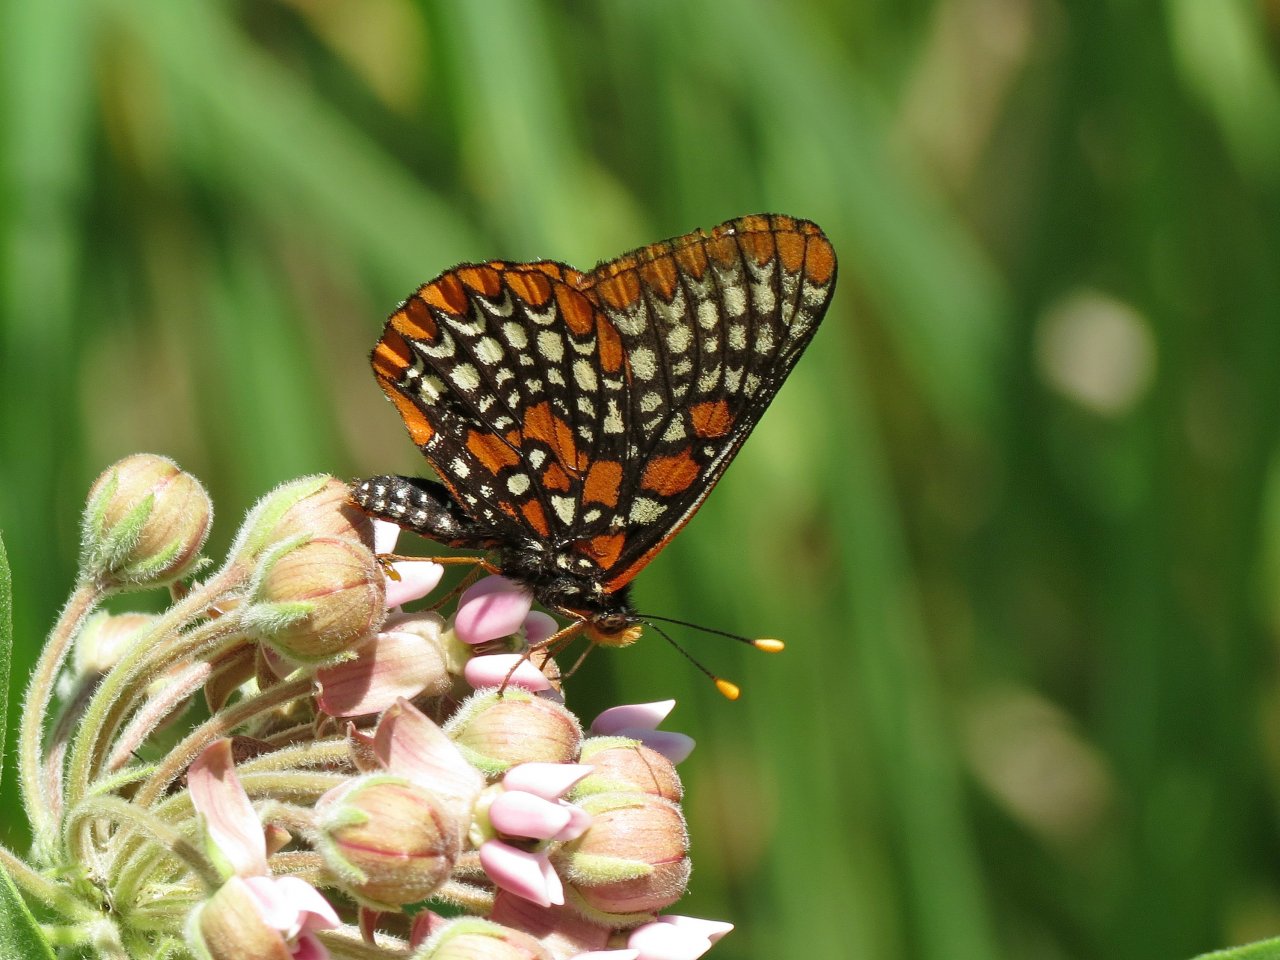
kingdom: Animalia
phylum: Arthropoda
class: Insecta
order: Lepidoptera
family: Nymphalidae
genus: Euphydryas
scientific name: Euphydryas phaeton
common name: Baltimore Checkerspot
